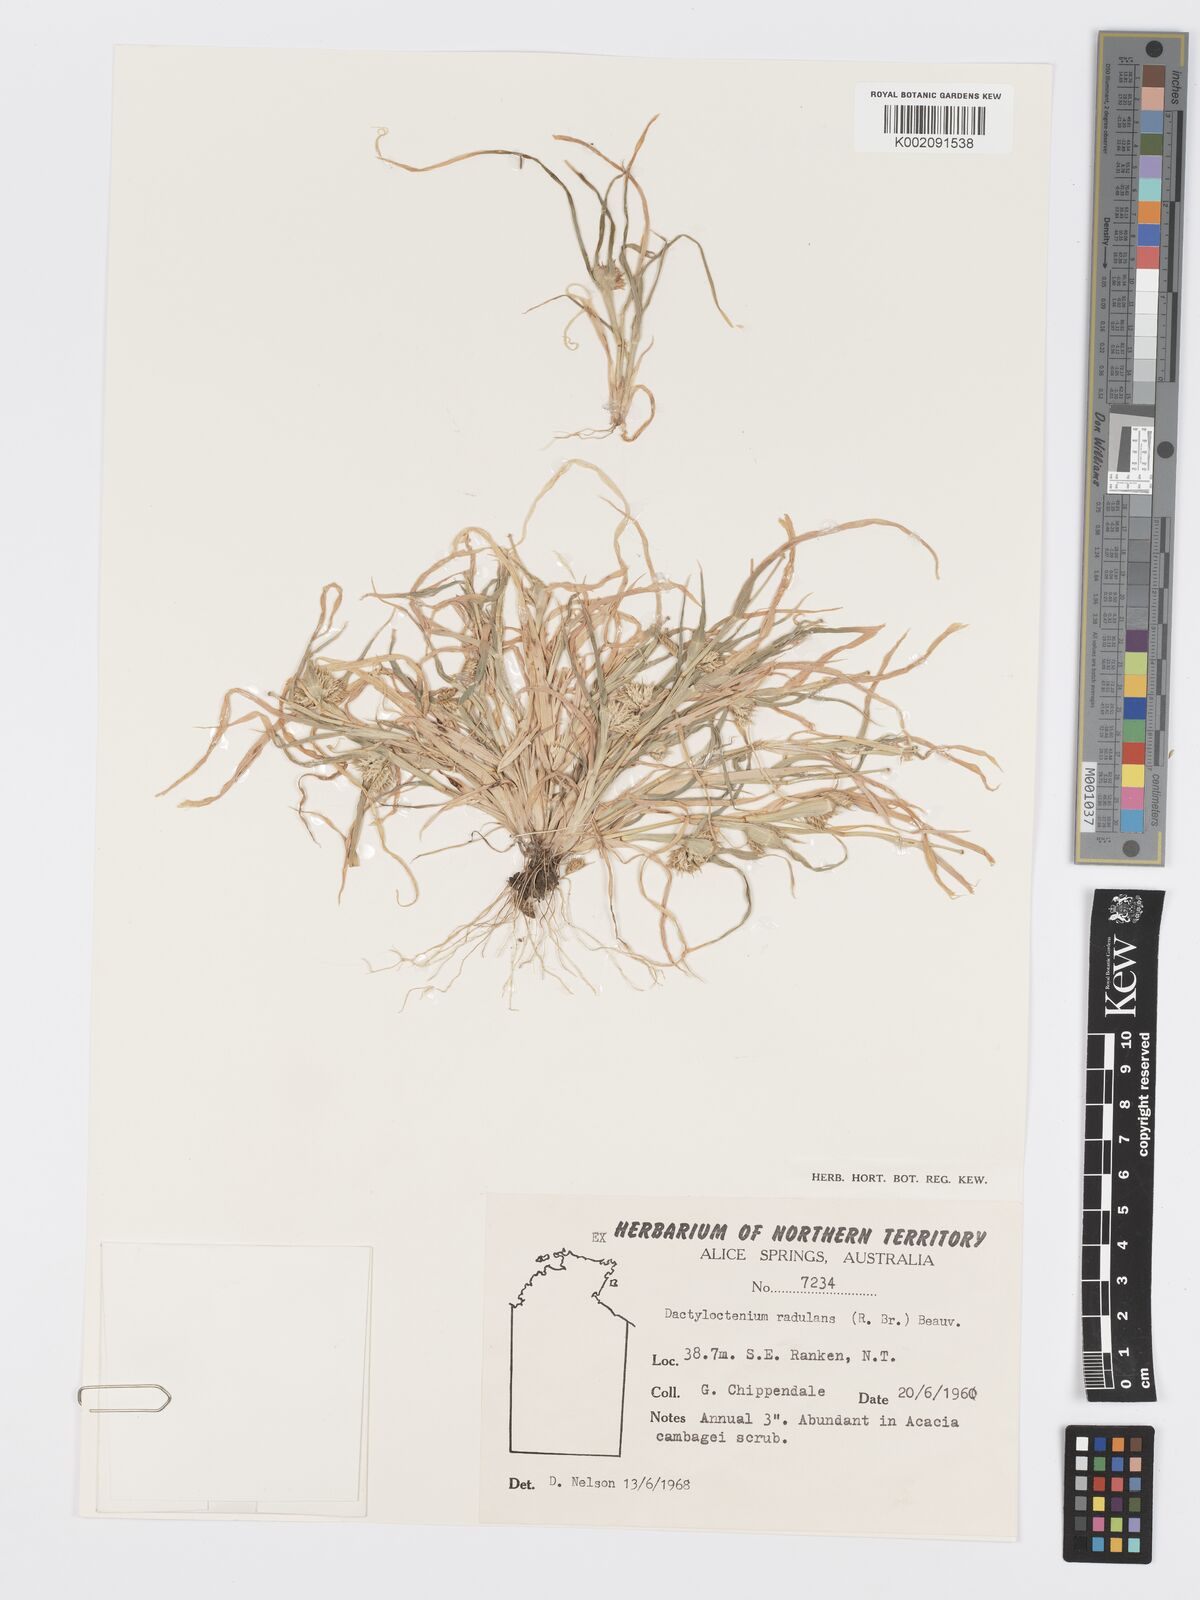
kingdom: Plantae
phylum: Tracheophyta
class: Liliopsida
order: Poales
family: Poaceae
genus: Dactyloctenium
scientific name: Dactyloctenium radulans
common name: Button-grass
